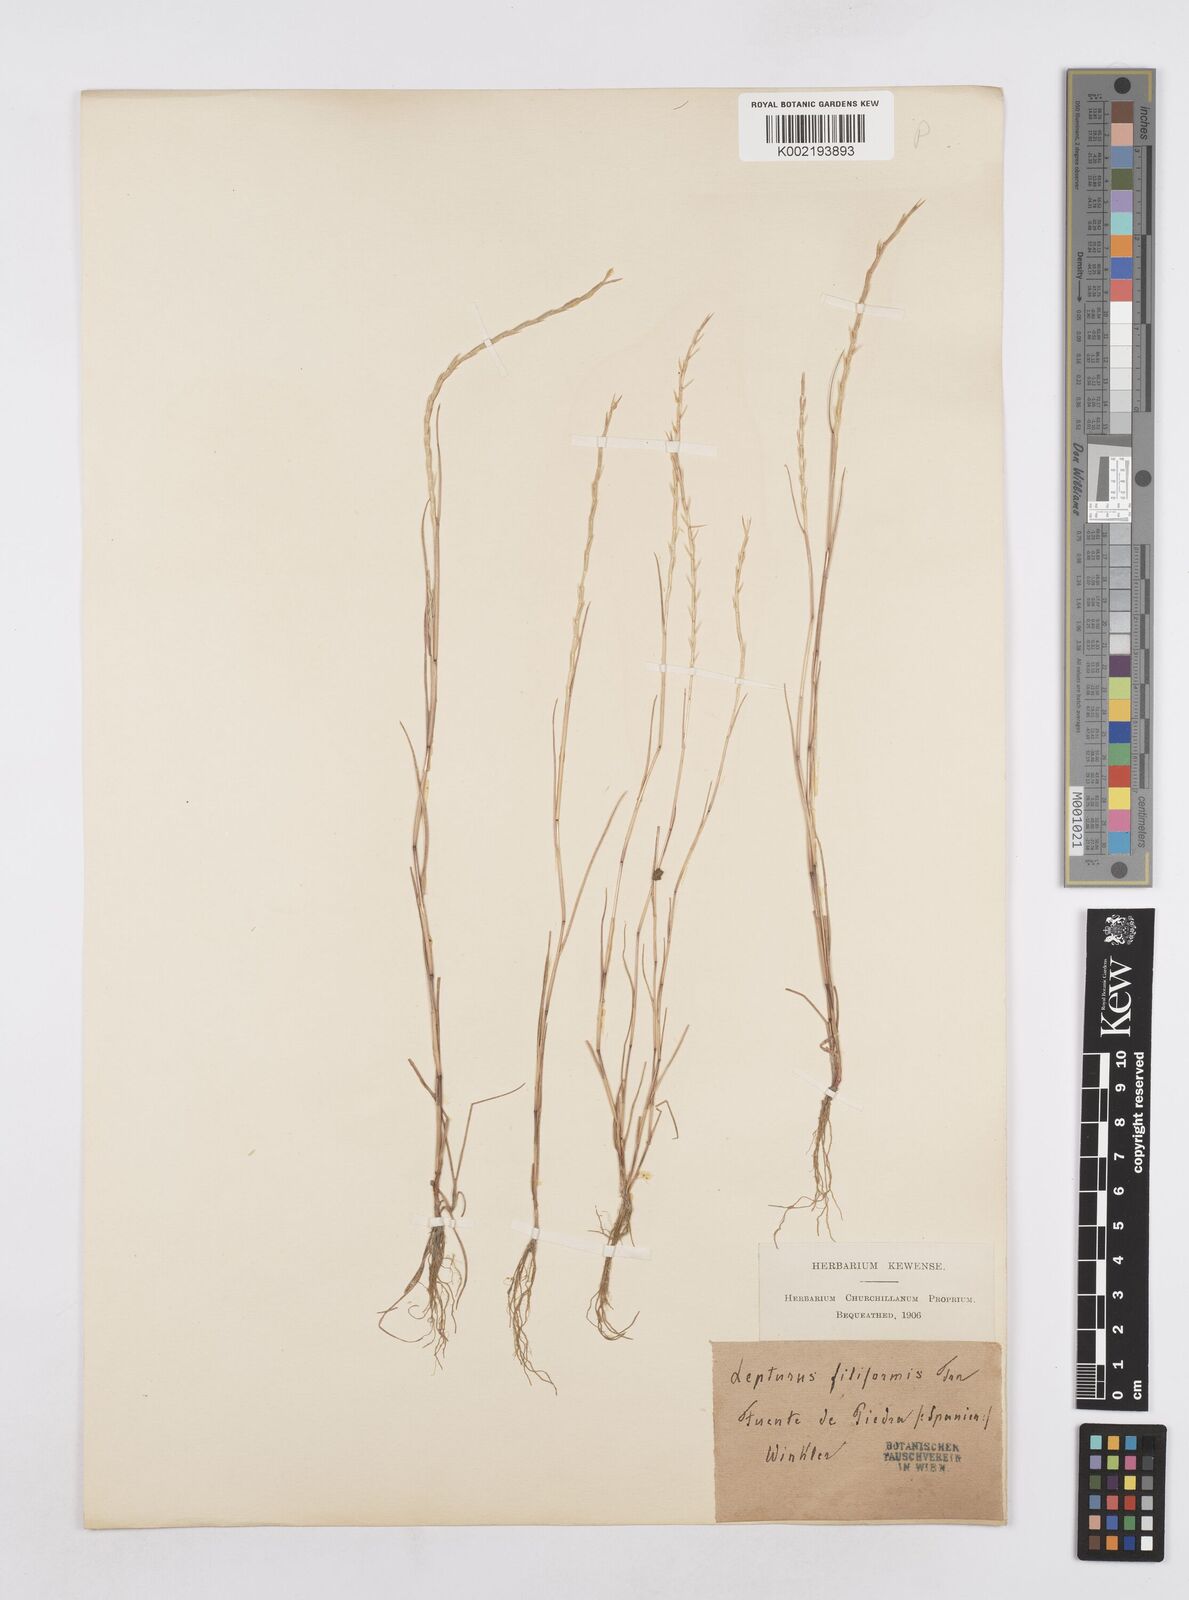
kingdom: Plantae
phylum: Tracheophyta
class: Liliopsida
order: Poales
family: Poaceae
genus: Parapholis
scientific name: Parapholis pycnantha
